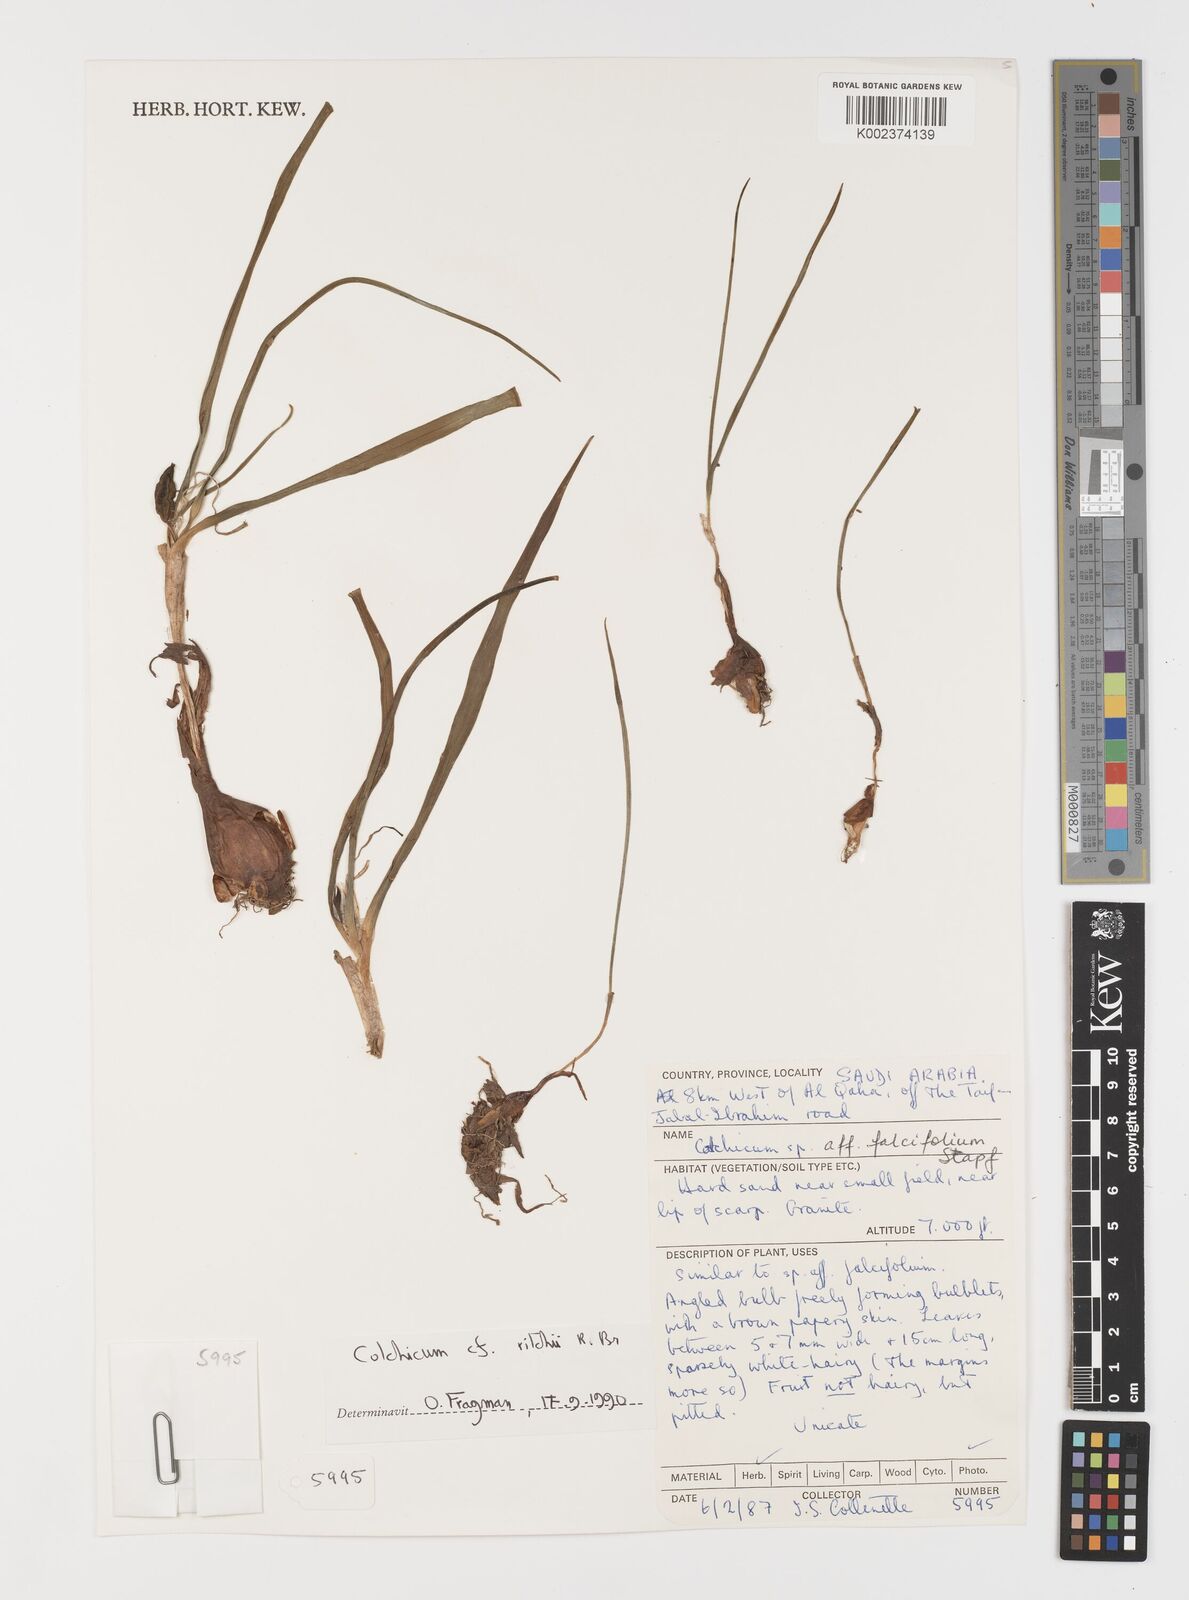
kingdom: Plantae
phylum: Tracheophyta
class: Liliopsida
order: Asparagales
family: Iridaceae
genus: Iris
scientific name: Iris caucasica
